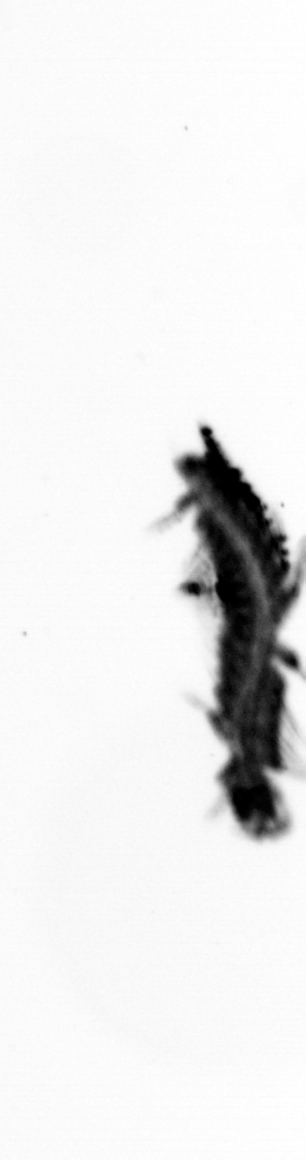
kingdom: Animalia
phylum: Annelida
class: Polychaeta
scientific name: Polychaeta
